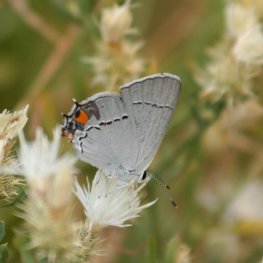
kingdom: Animalia
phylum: Arthropoda
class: Insecta
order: Lepidoptera
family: Lycaenidae
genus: Strymon
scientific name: Strymon melinus
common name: Gray Hairstreak
